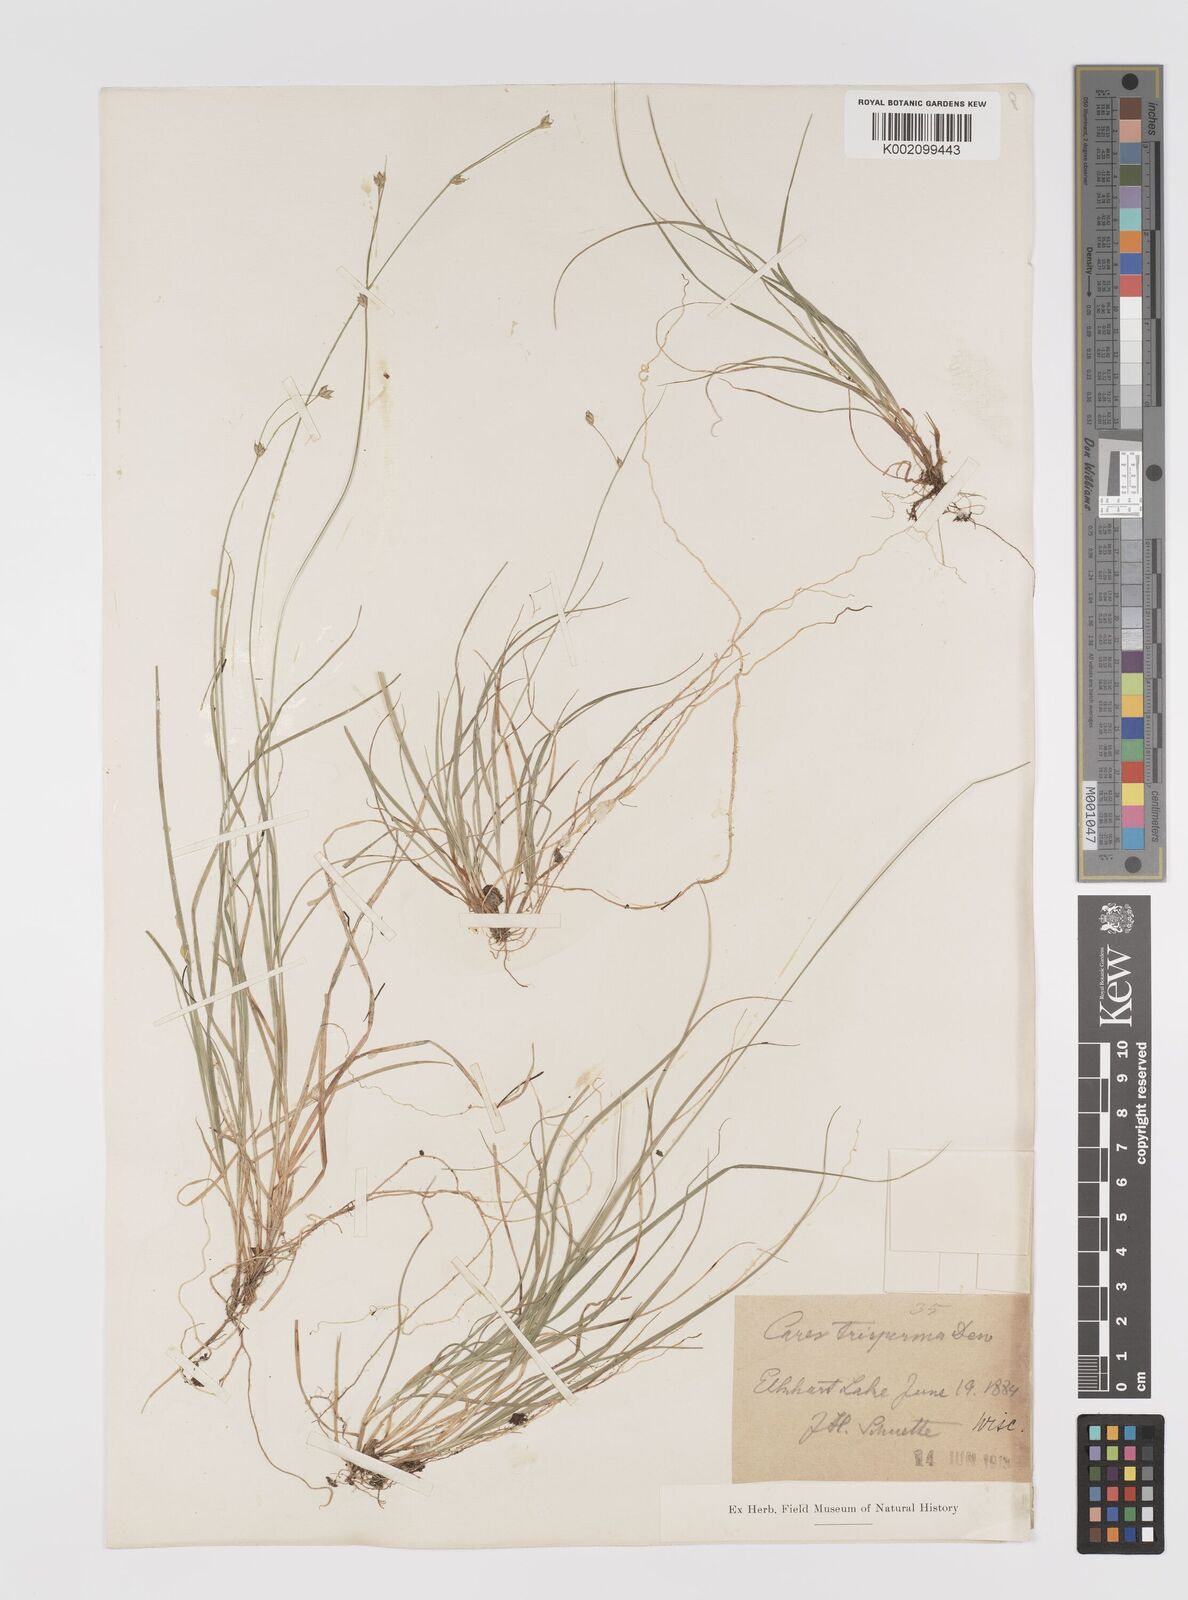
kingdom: Plantae
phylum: Tracheophyta
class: Liliopsida
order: Poales
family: Cyperaceae
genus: Carex
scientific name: Carex trisperma
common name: Three-seeded sedge
